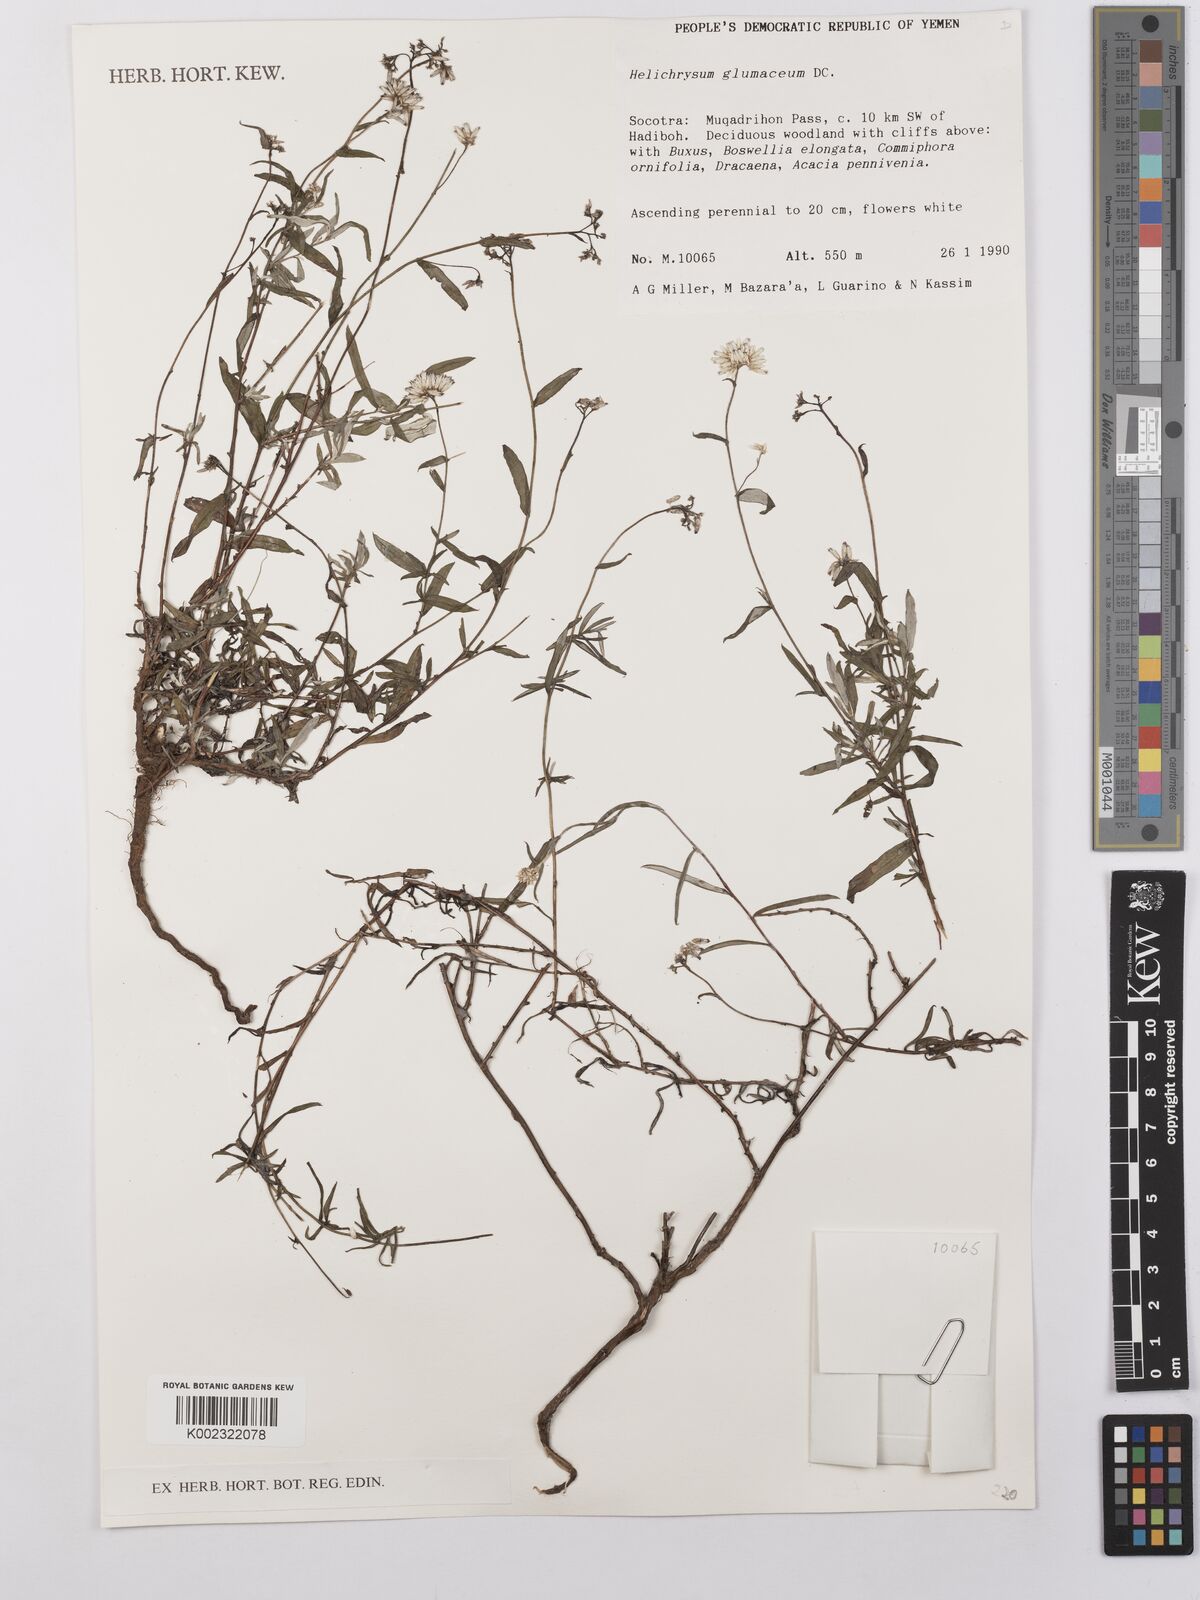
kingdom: Plantae
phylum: Tracheophyta
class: Magnoliopsida
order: Asterales
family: Asteraceae
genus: Helichrysum
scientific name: Helichrysum glumaceum
